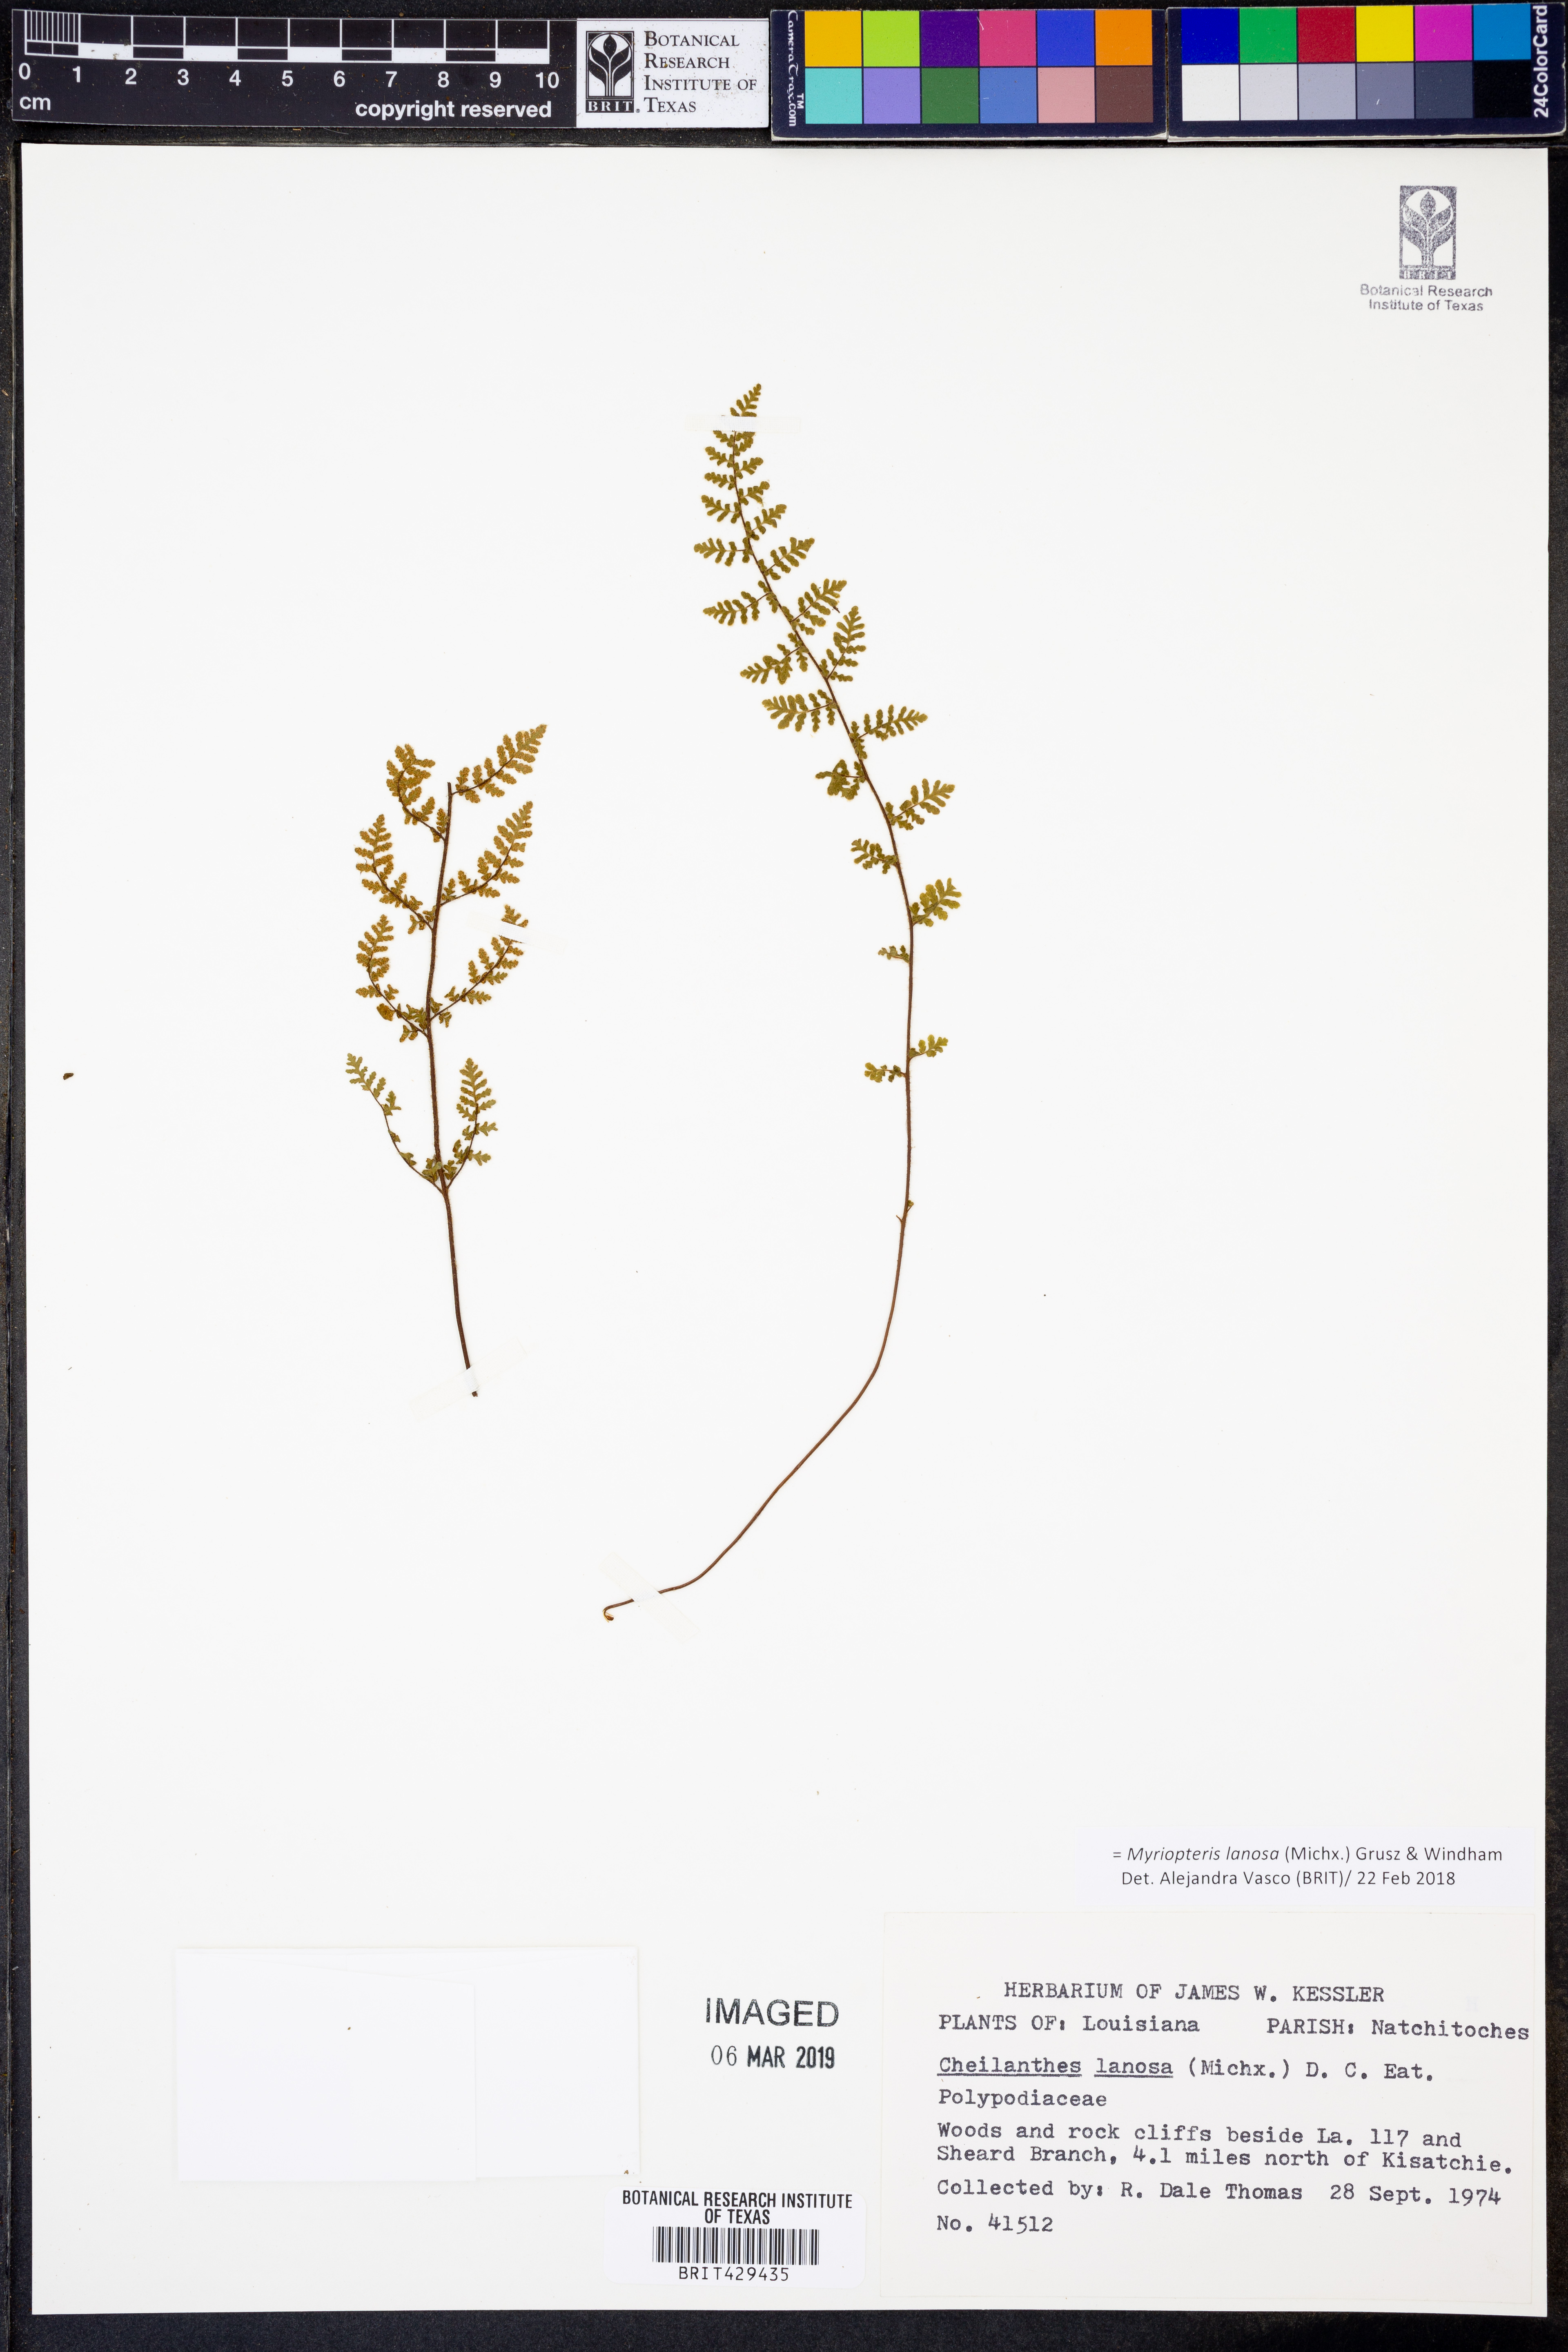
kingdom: Plantae
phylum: Tracheophyta
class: Polypodiopsida
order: Polypodiales
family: Pteridaceae
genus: Myriopteris
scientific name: Myriopteris lanosa
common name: Hairy lip fern
